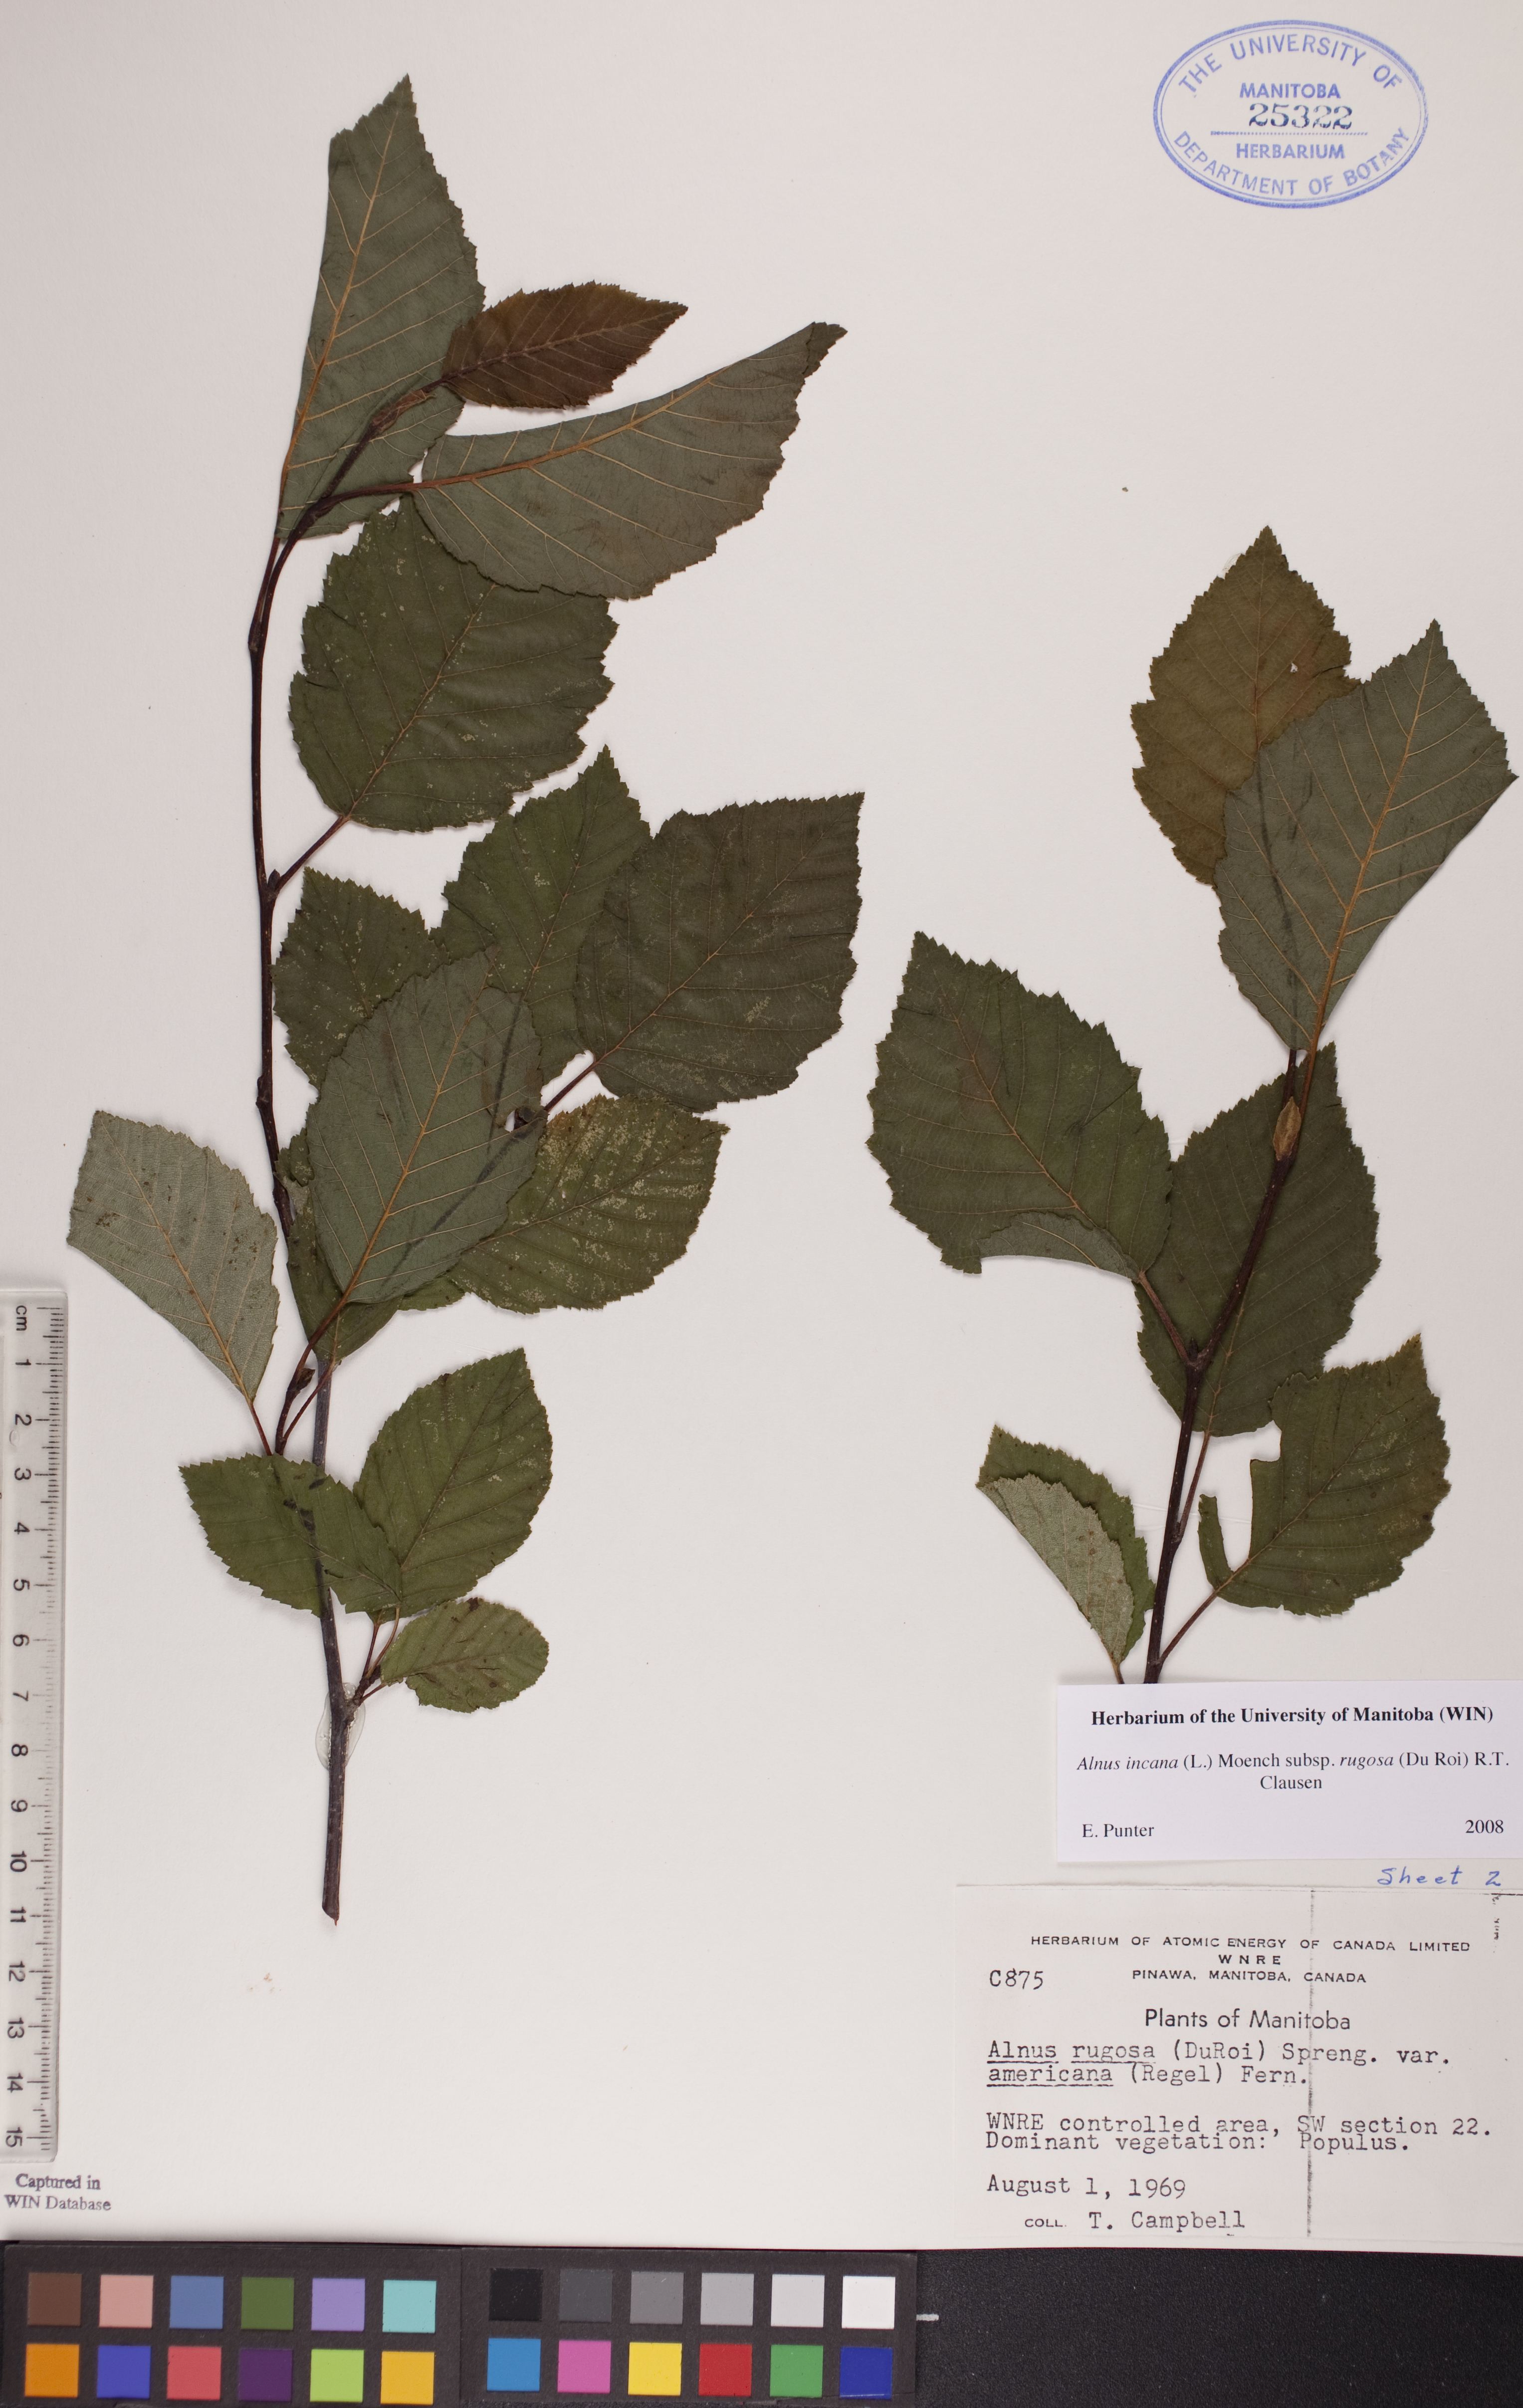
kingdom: Plantae
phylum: Tracheophyta
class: Magnoliopsida
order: Fagales
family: Betulaceae
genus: Alnus
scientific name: Alnus incana
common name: Grey alder
